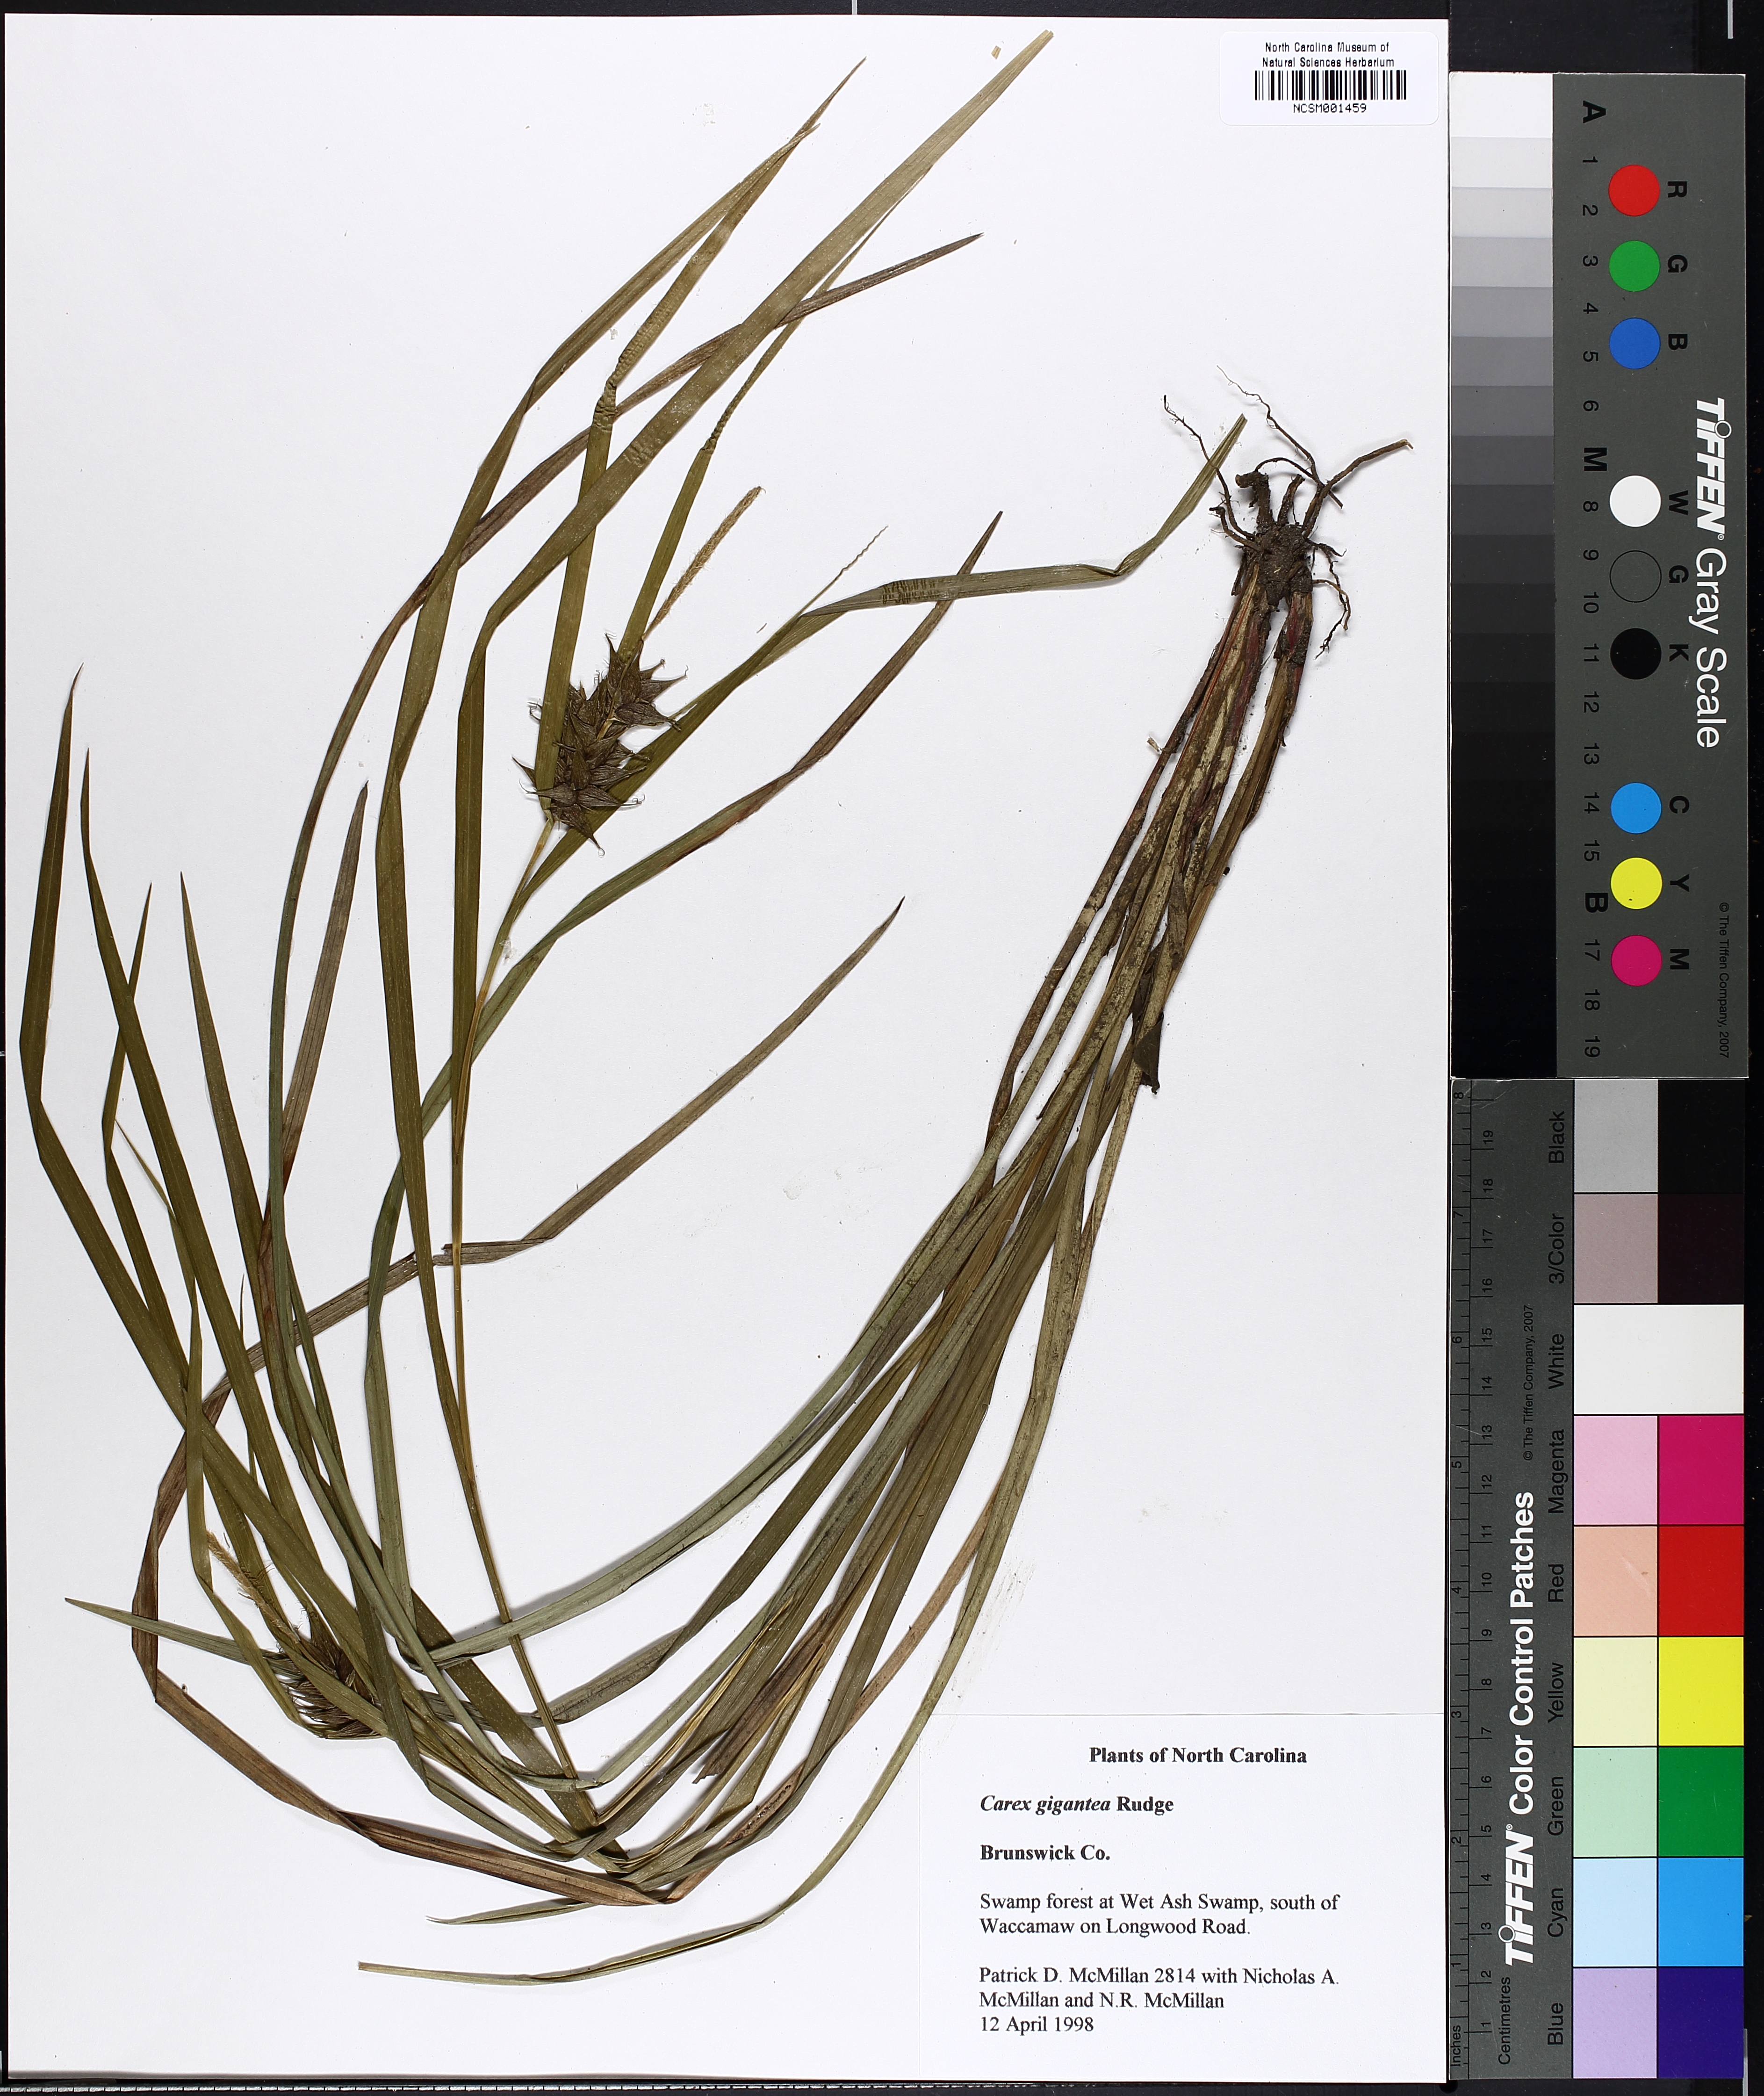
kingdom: Plantae
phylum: Tracheophyta
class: Liliopsida
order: Poales
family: Cyperaceae
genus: Carex
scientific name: Carex gigantea
